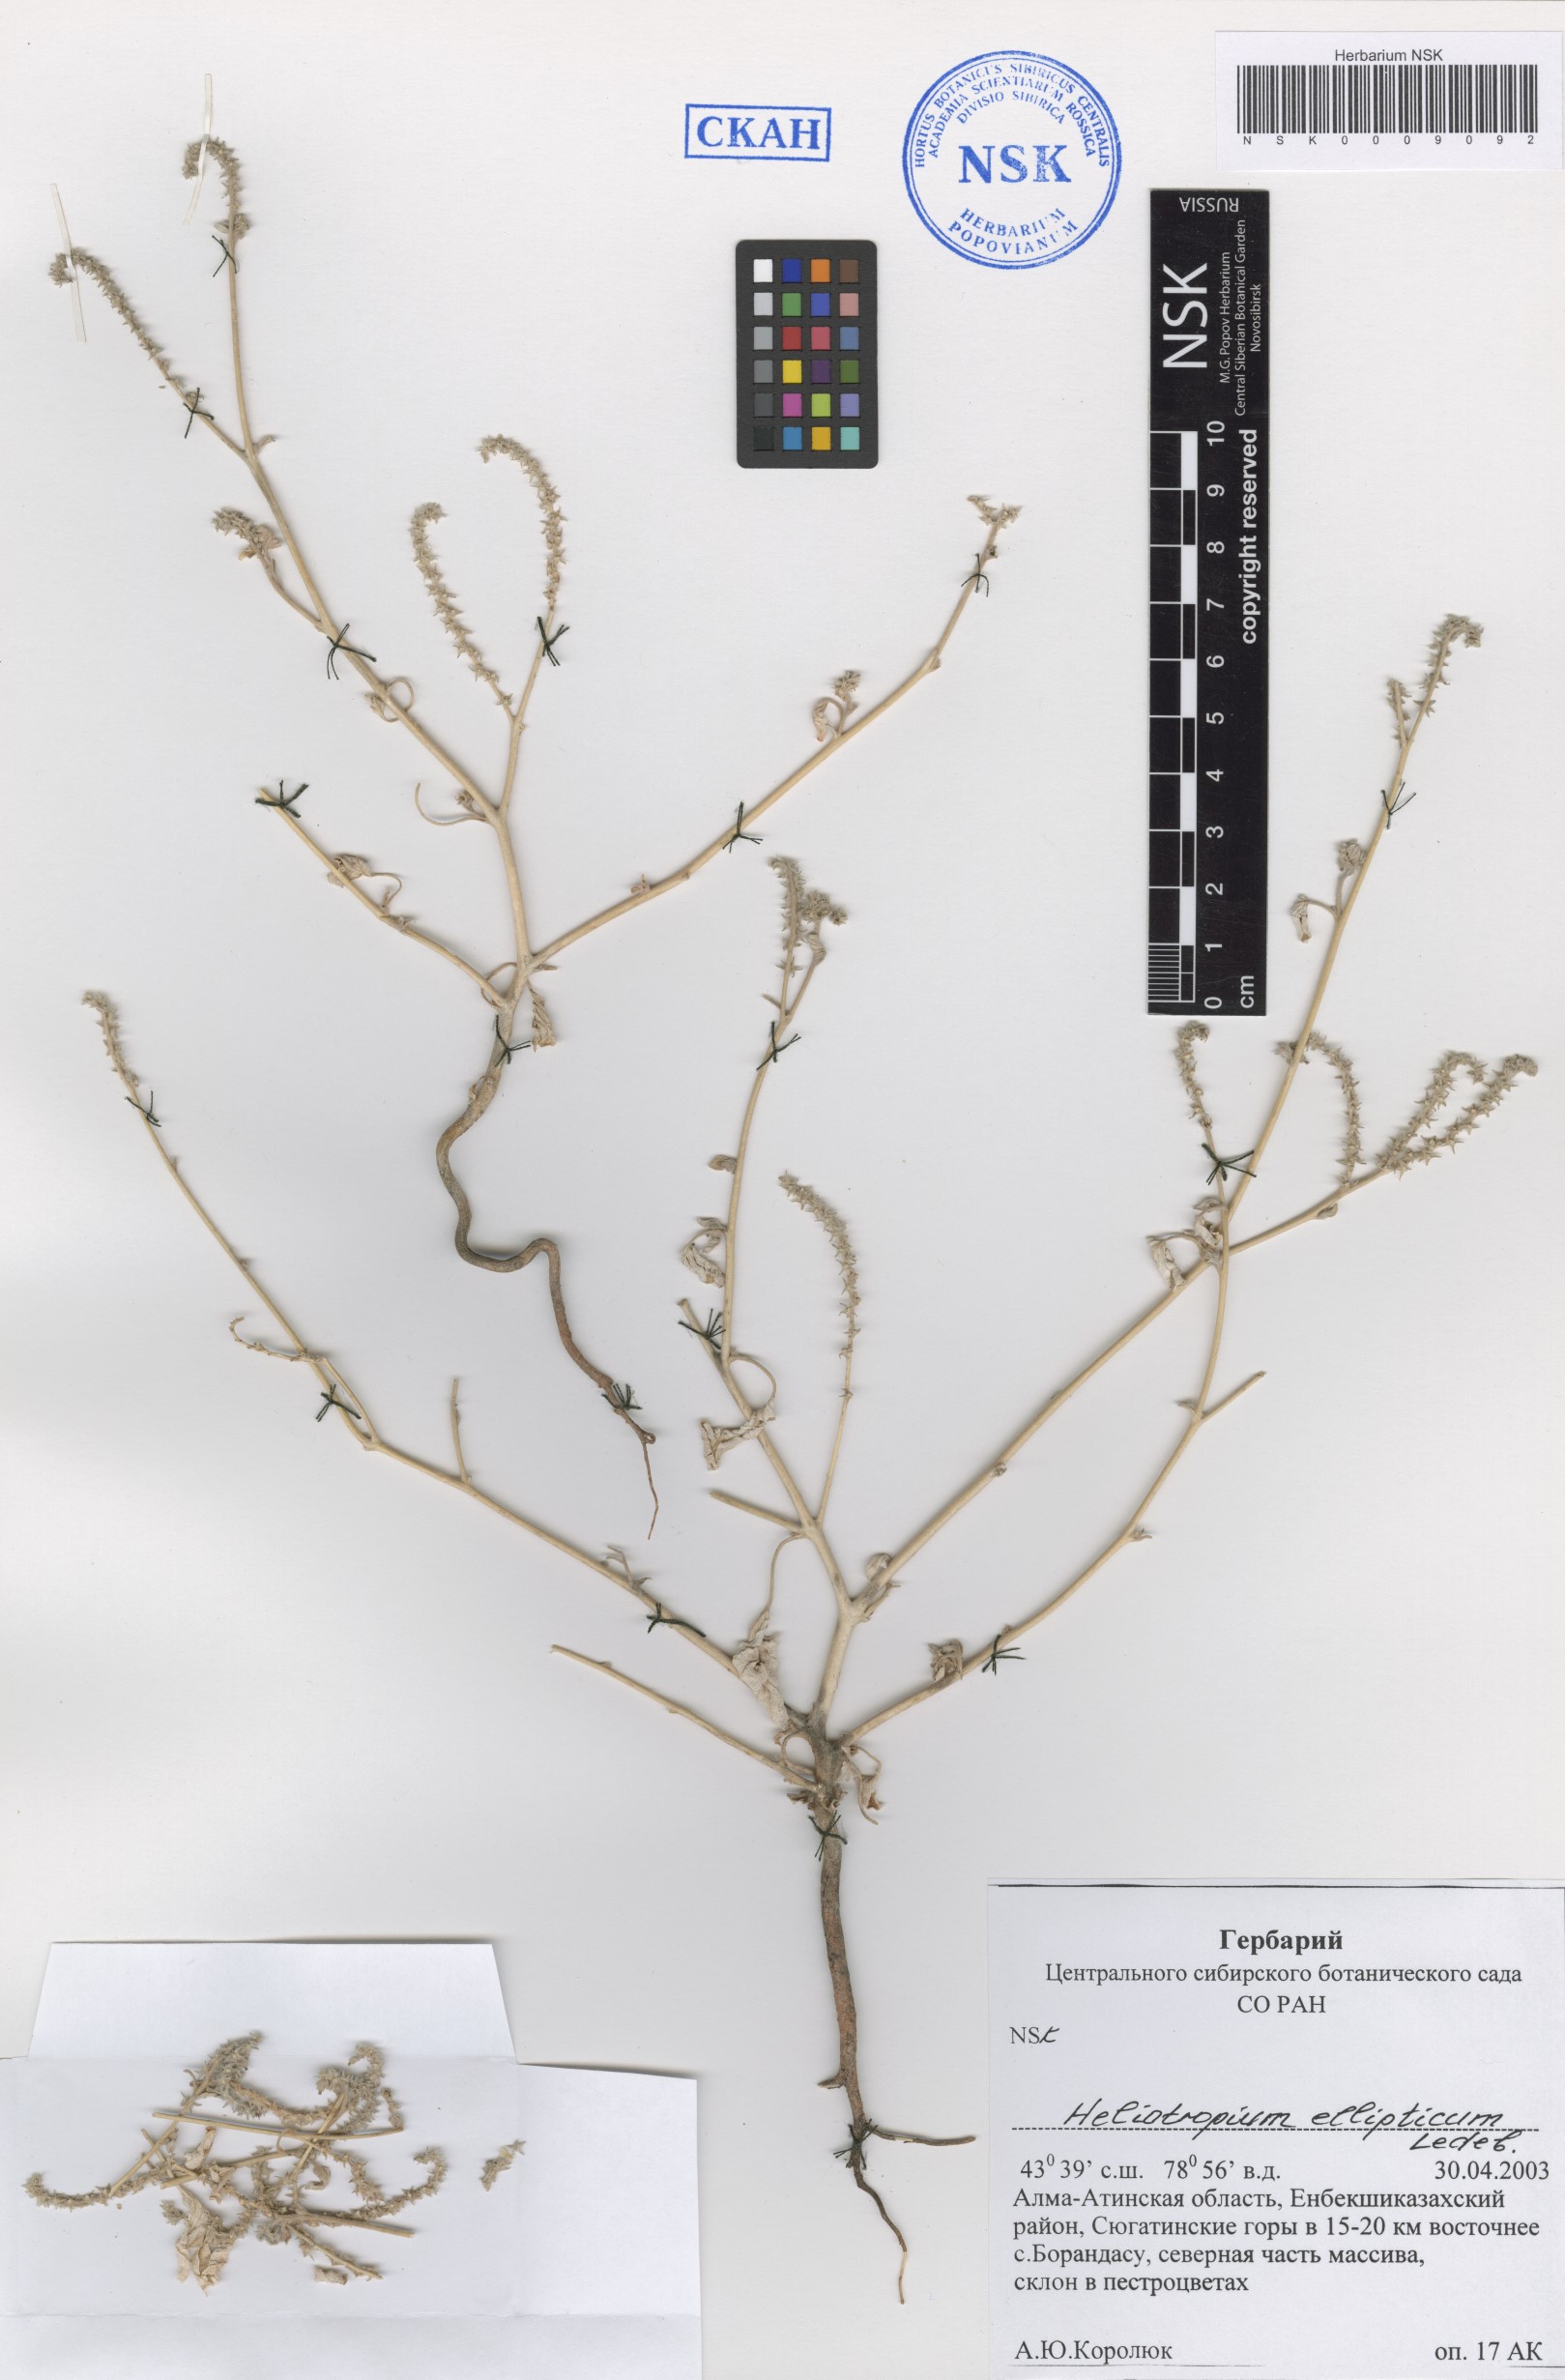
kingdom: Plantae
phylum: Tracheophyta
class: Magnoliopsida
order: Boraginales
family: Heliotropiaceae
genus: Heliotropium
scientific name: Heliotropium ellipticum
